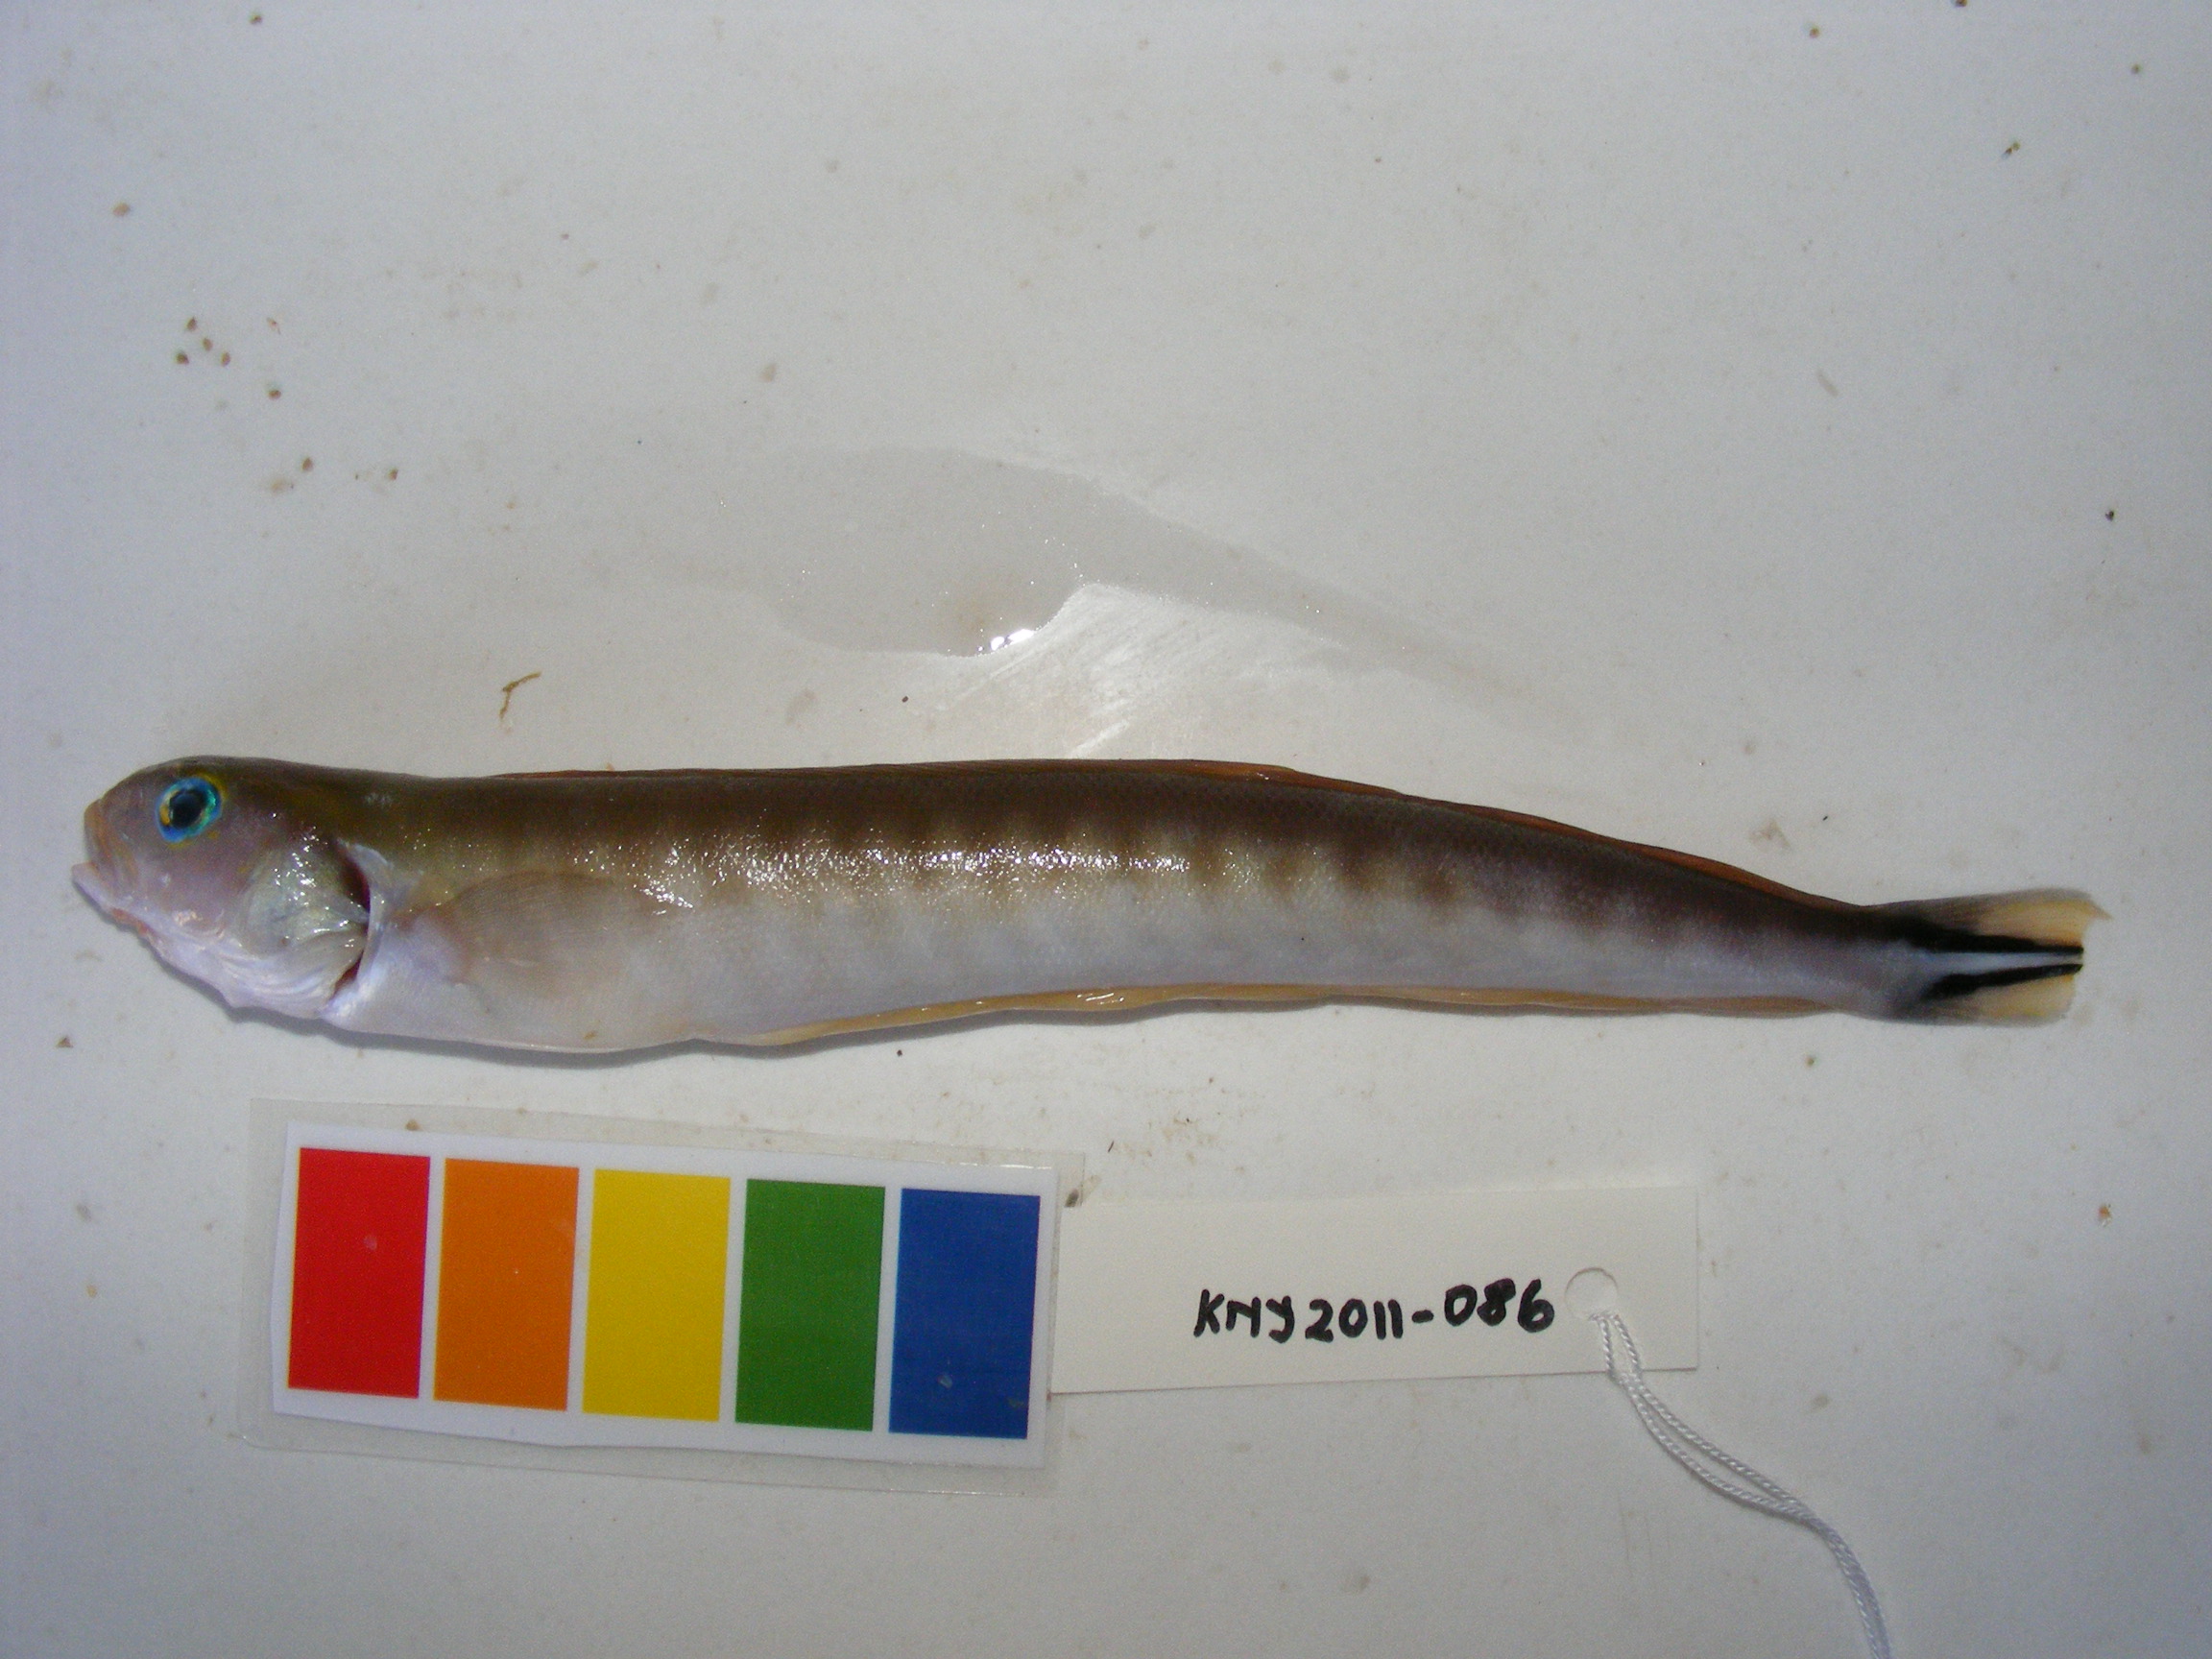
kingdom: Animalia
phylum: Chordata
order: Perciformes
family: Malacanthidae
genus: Malacanthus
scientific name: Malacanthus brevirostris
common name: Flagtail blanquillo
